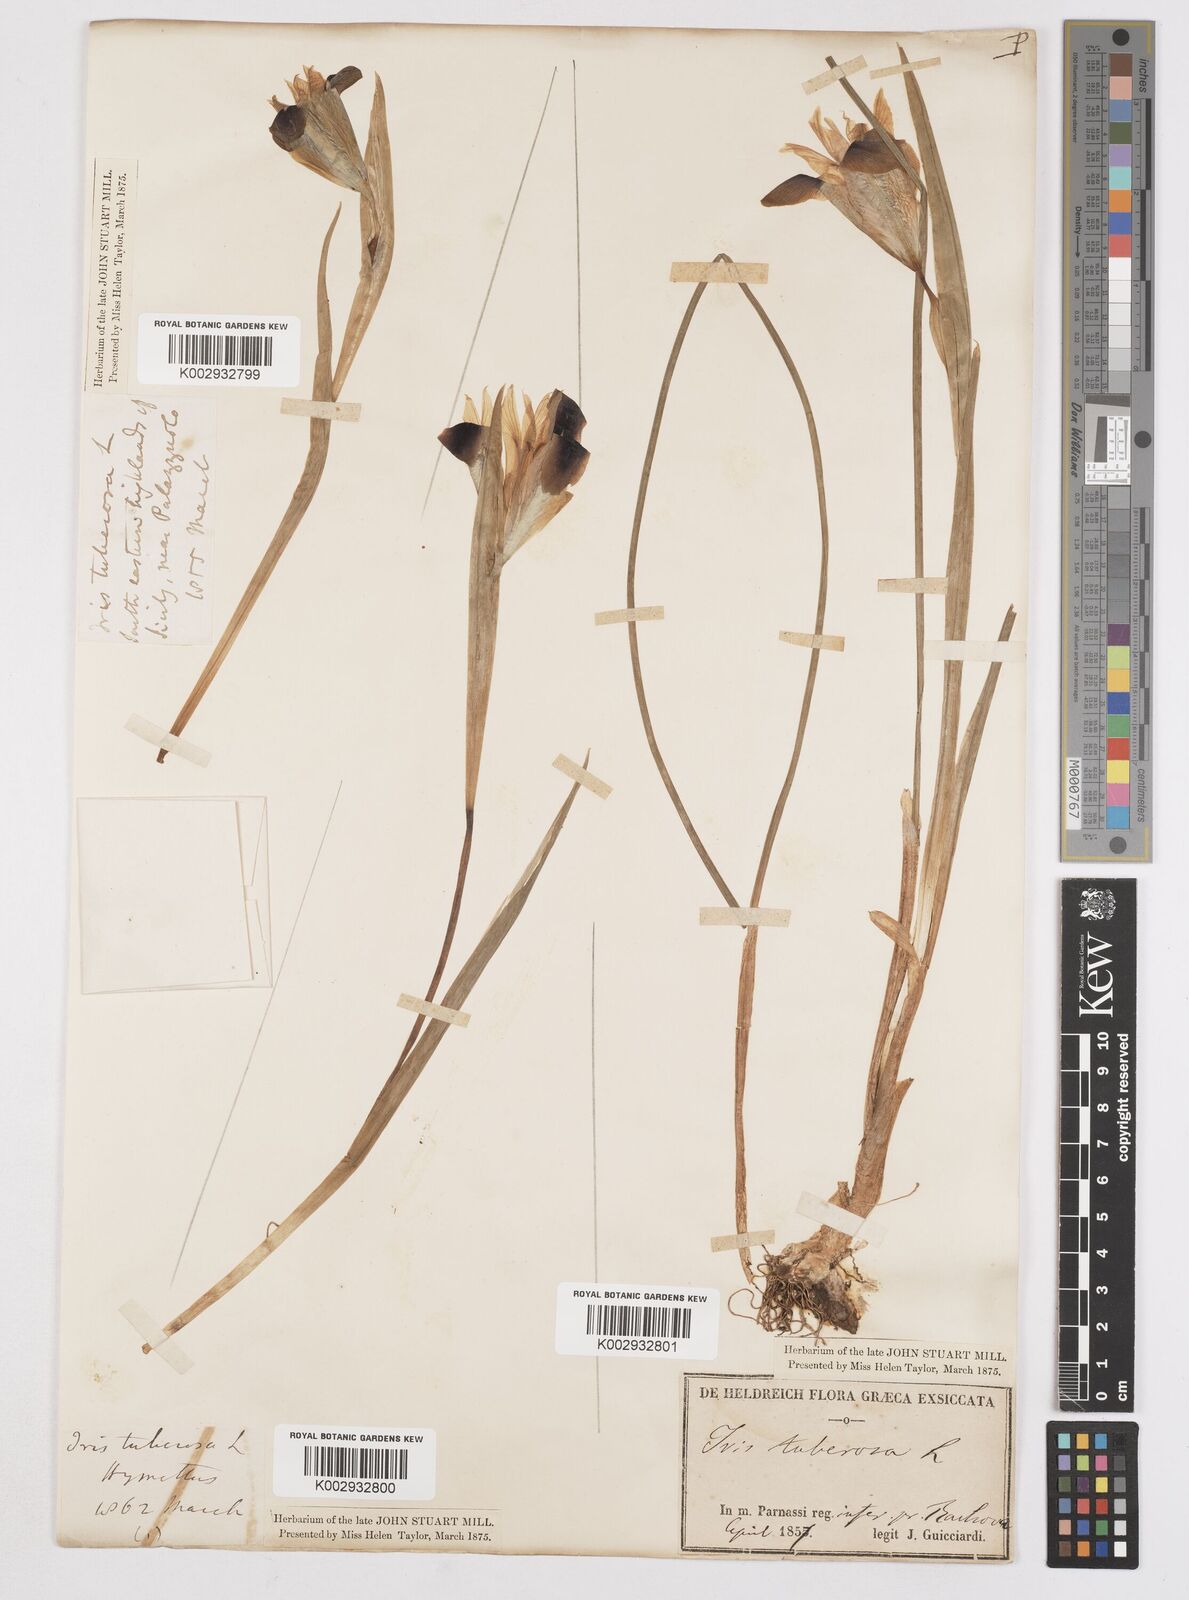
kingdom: Plantae
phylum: Tracheophyta
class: Liliopsida
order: Asparagales
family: Iridaceae
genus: Iris
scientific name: Iris tuberosa
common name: Snake's-head iris
